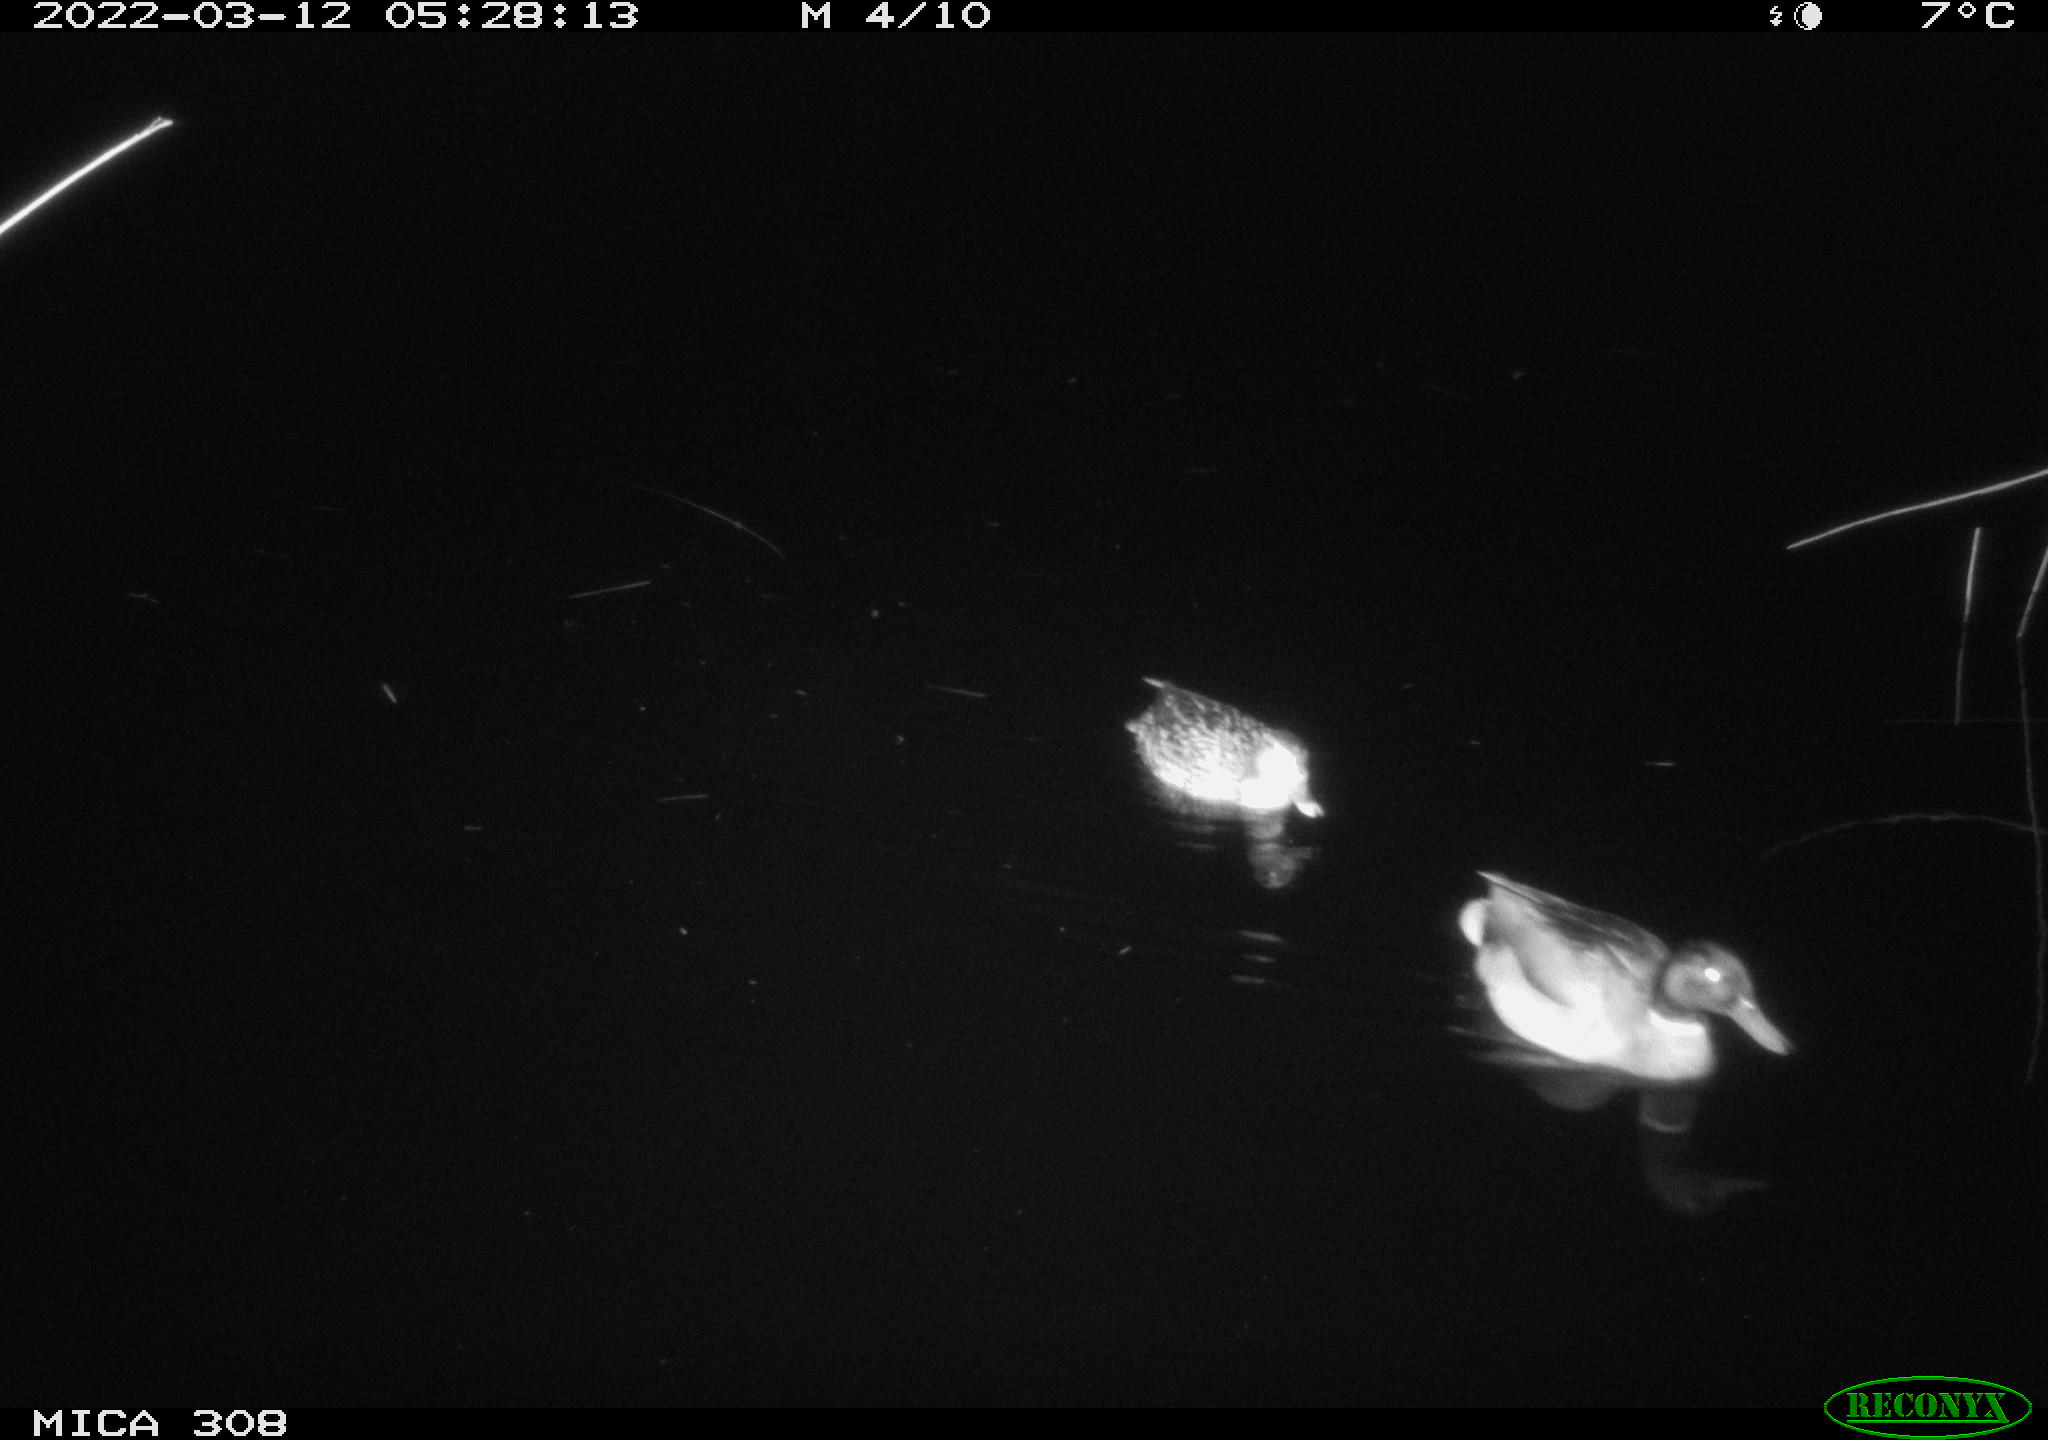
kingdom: Animalia
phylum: Chordata
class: Aves
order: Anseriformes
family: Anatidae
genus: Anas
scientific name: Anas platyrhynchos
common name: Mallard
